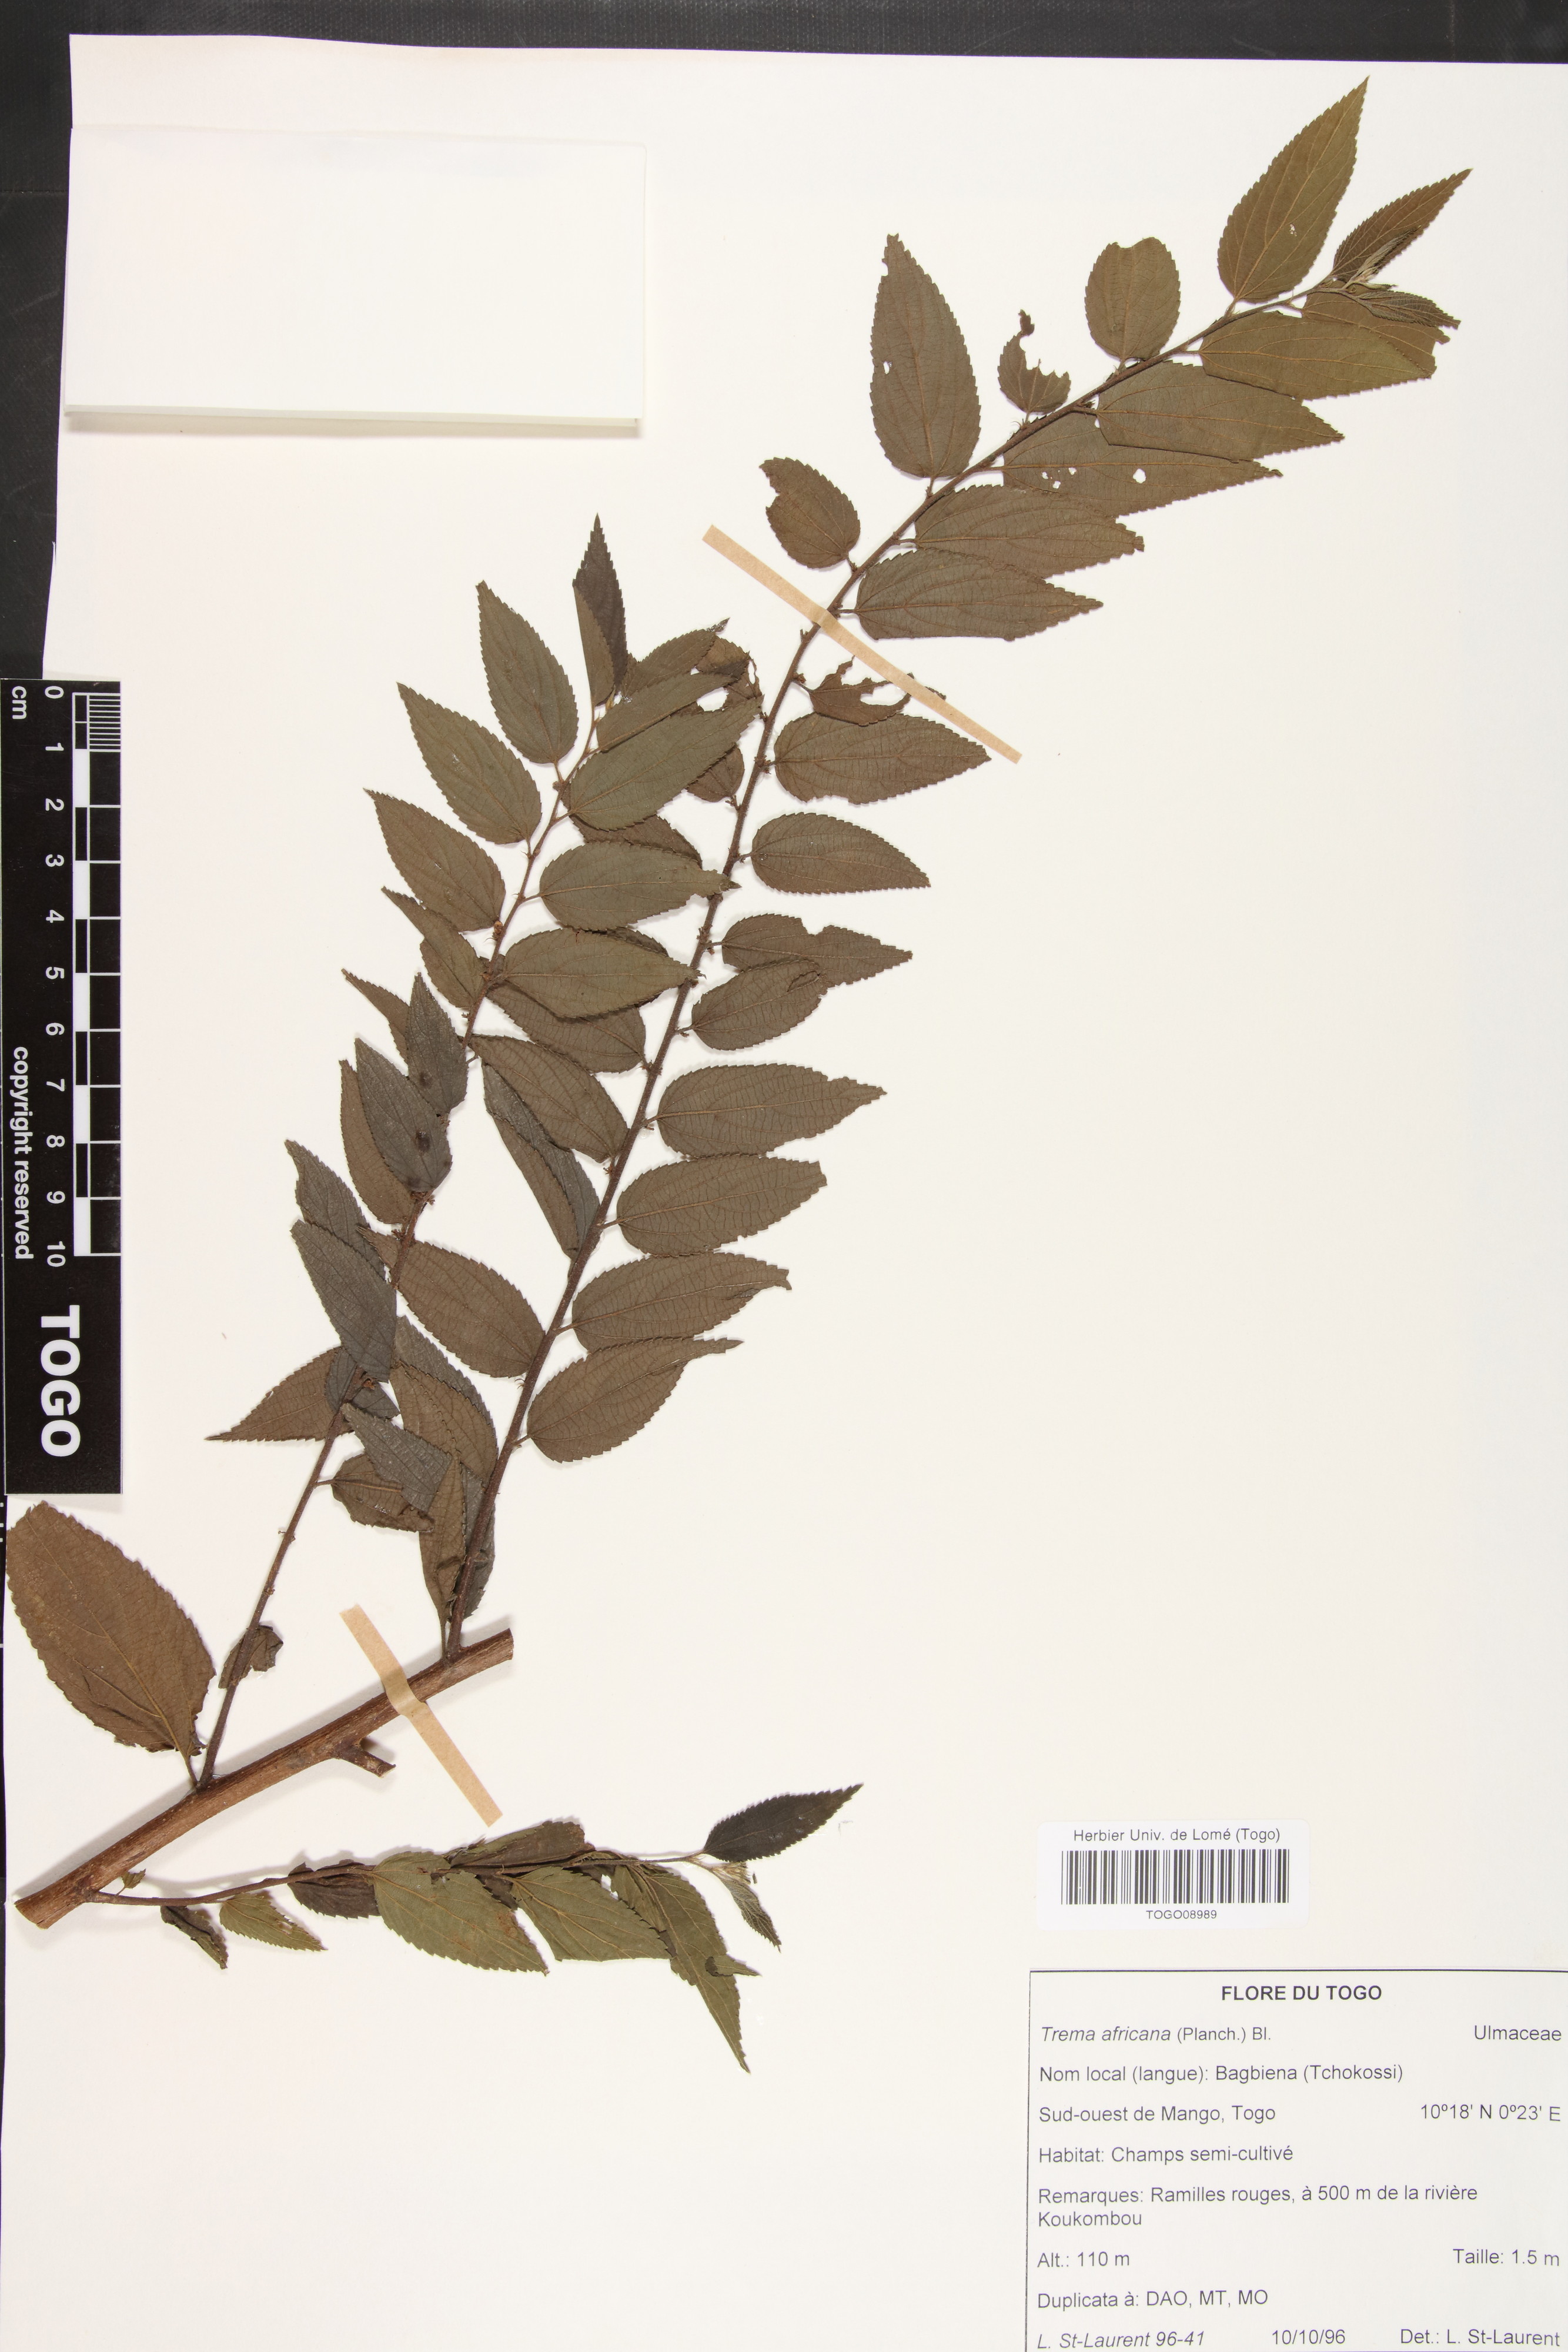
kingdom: Plantae
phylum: Tracheophyta
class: Magnoliopsida
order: Rosales
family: Cannabaceae
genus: Trema
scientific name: Trema orientale
